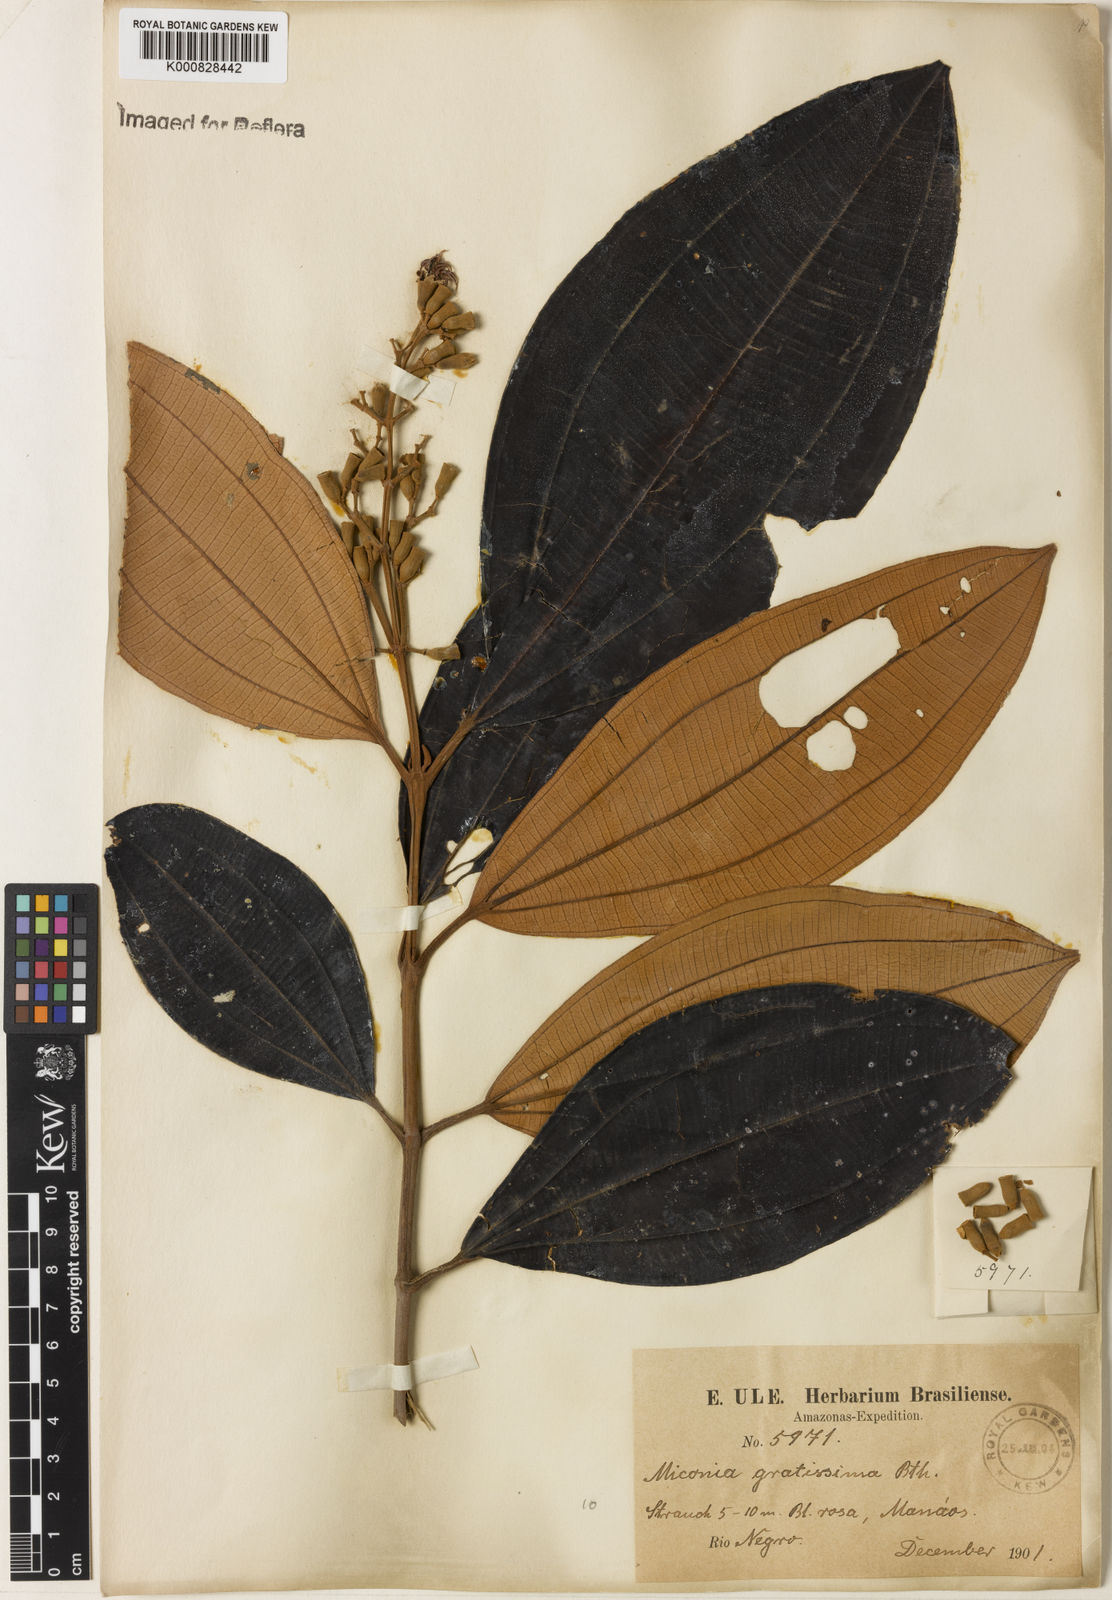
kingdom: Plantae
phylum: Tracheophyta
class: Magnoliopsida
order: Myrtales
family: Melastomataceae
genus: Miconia
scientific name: Miconia gratissima
